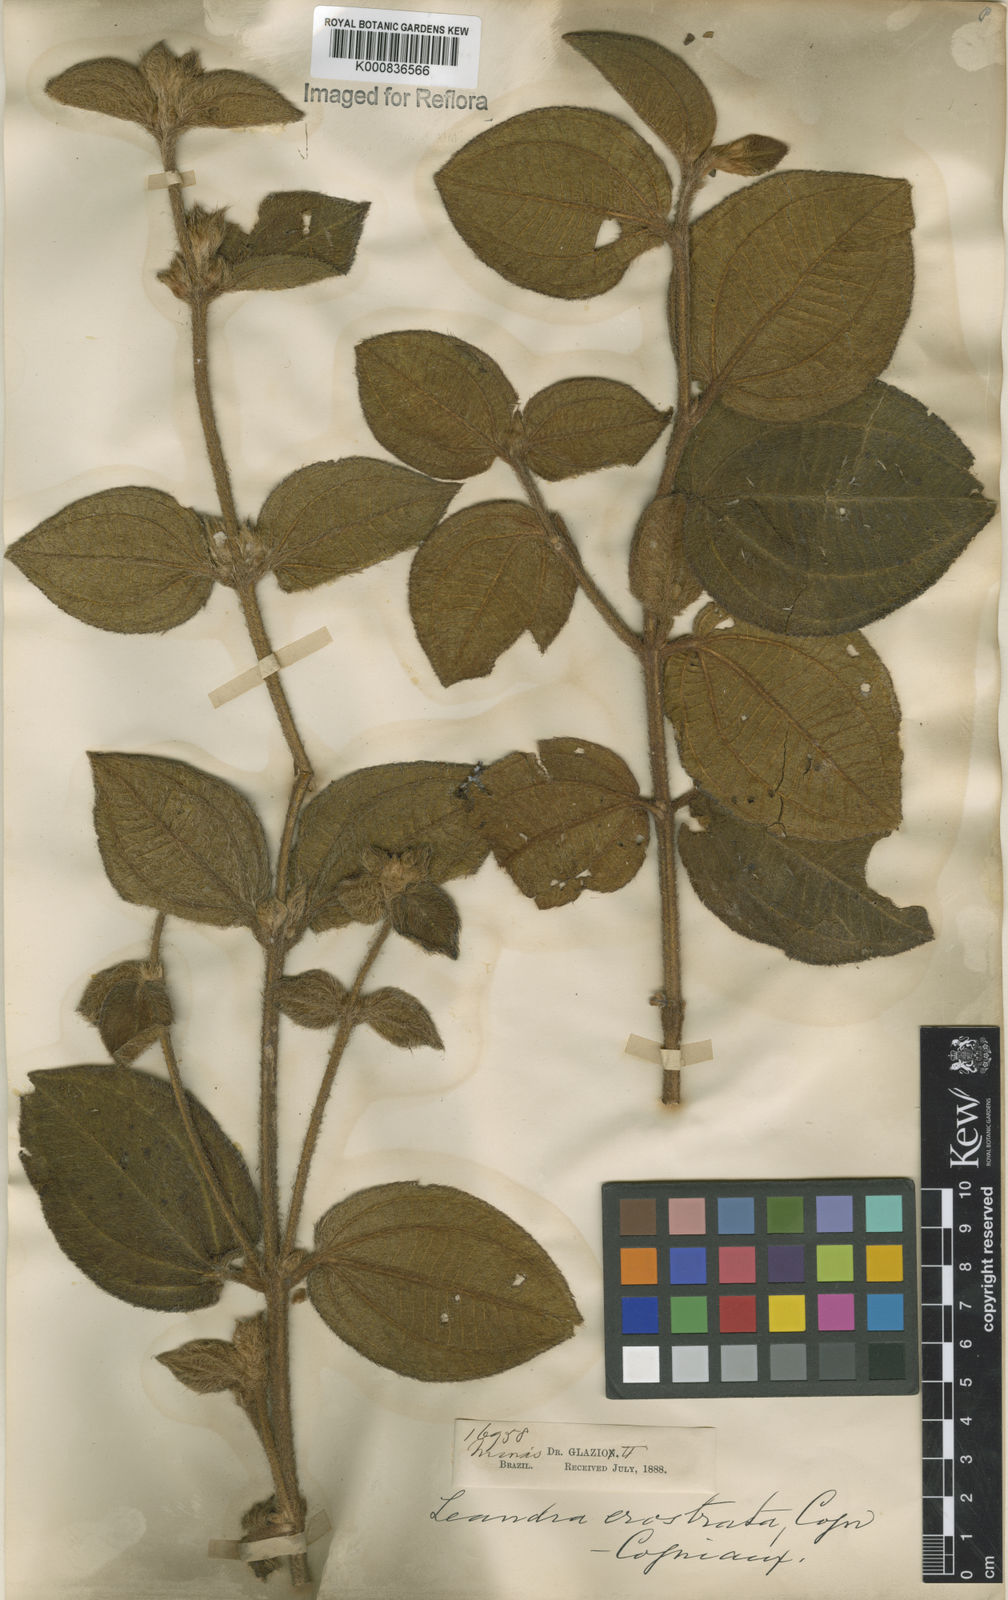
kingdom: Plantae
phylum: Tracheophyta
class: Magnoliopsida
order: Myrtales
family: Melastomataceae
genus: Miconia
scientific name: Miconia erostrata
